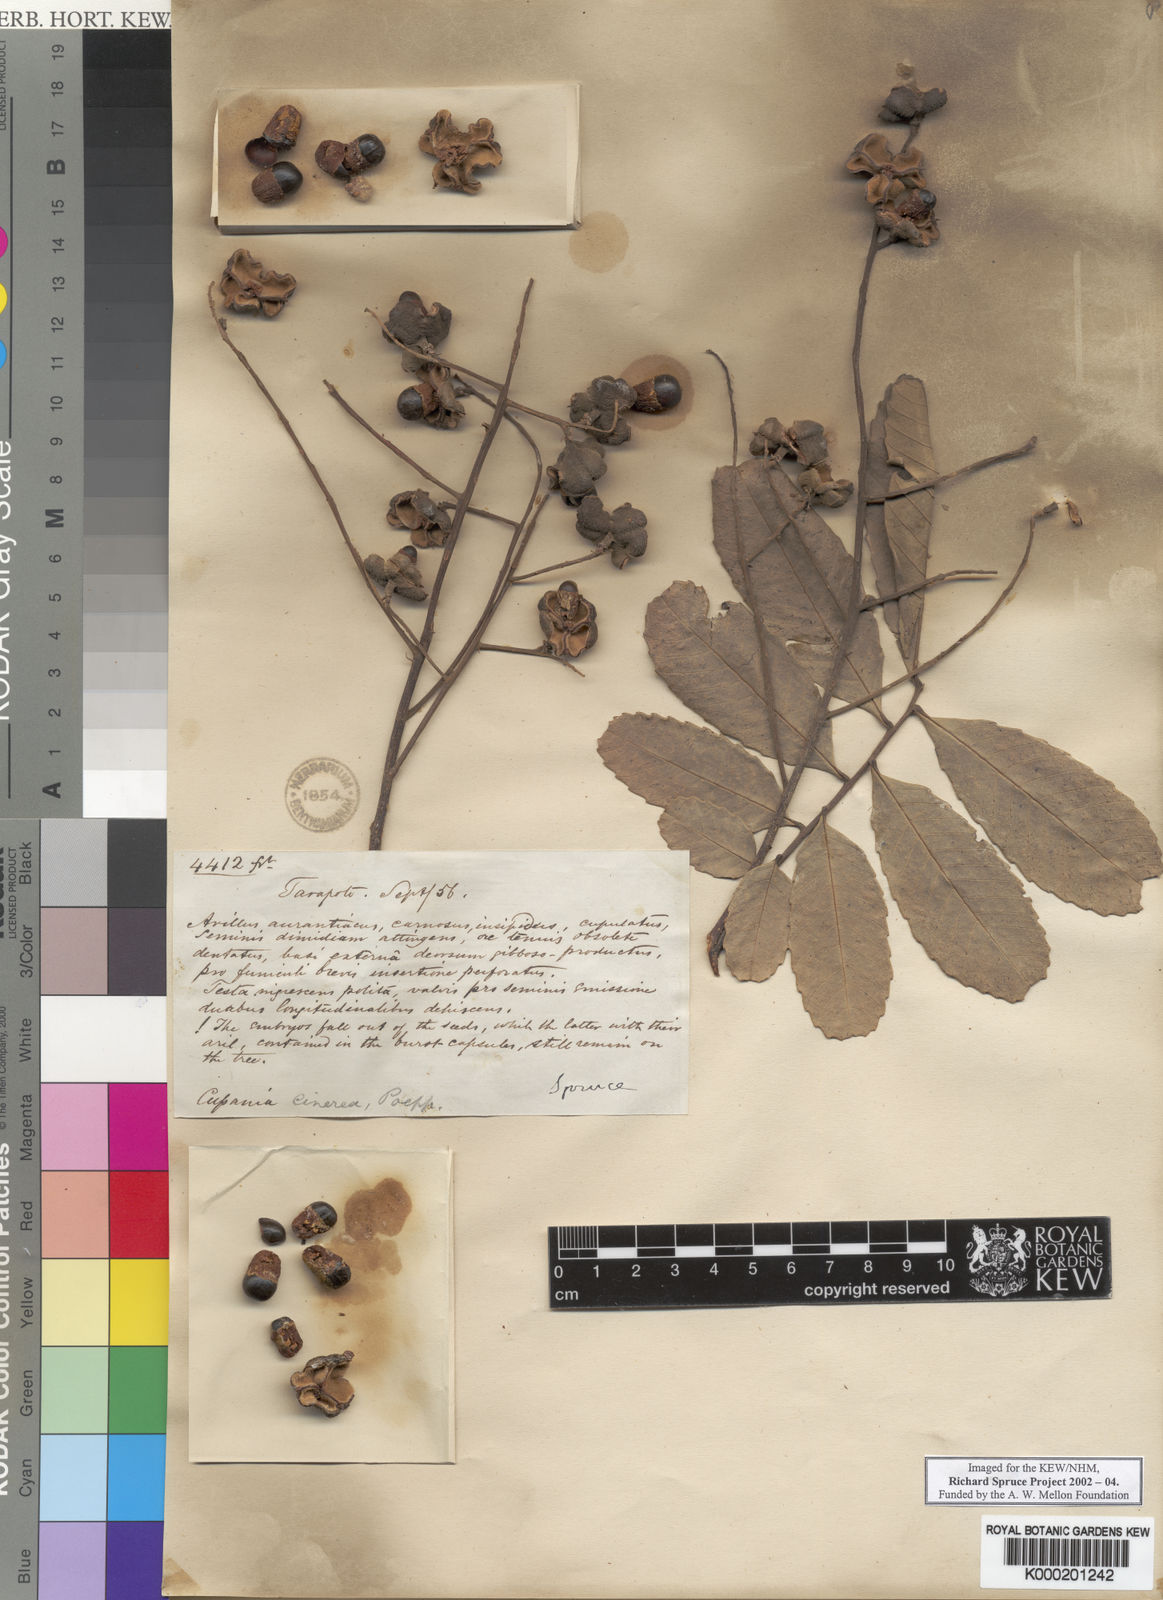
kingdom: Plantae
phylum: Tracheophyta
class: Magnoliopsida
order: Sapindales
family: Sapindaceae
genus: Cupania
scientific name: Cupania cinerea
